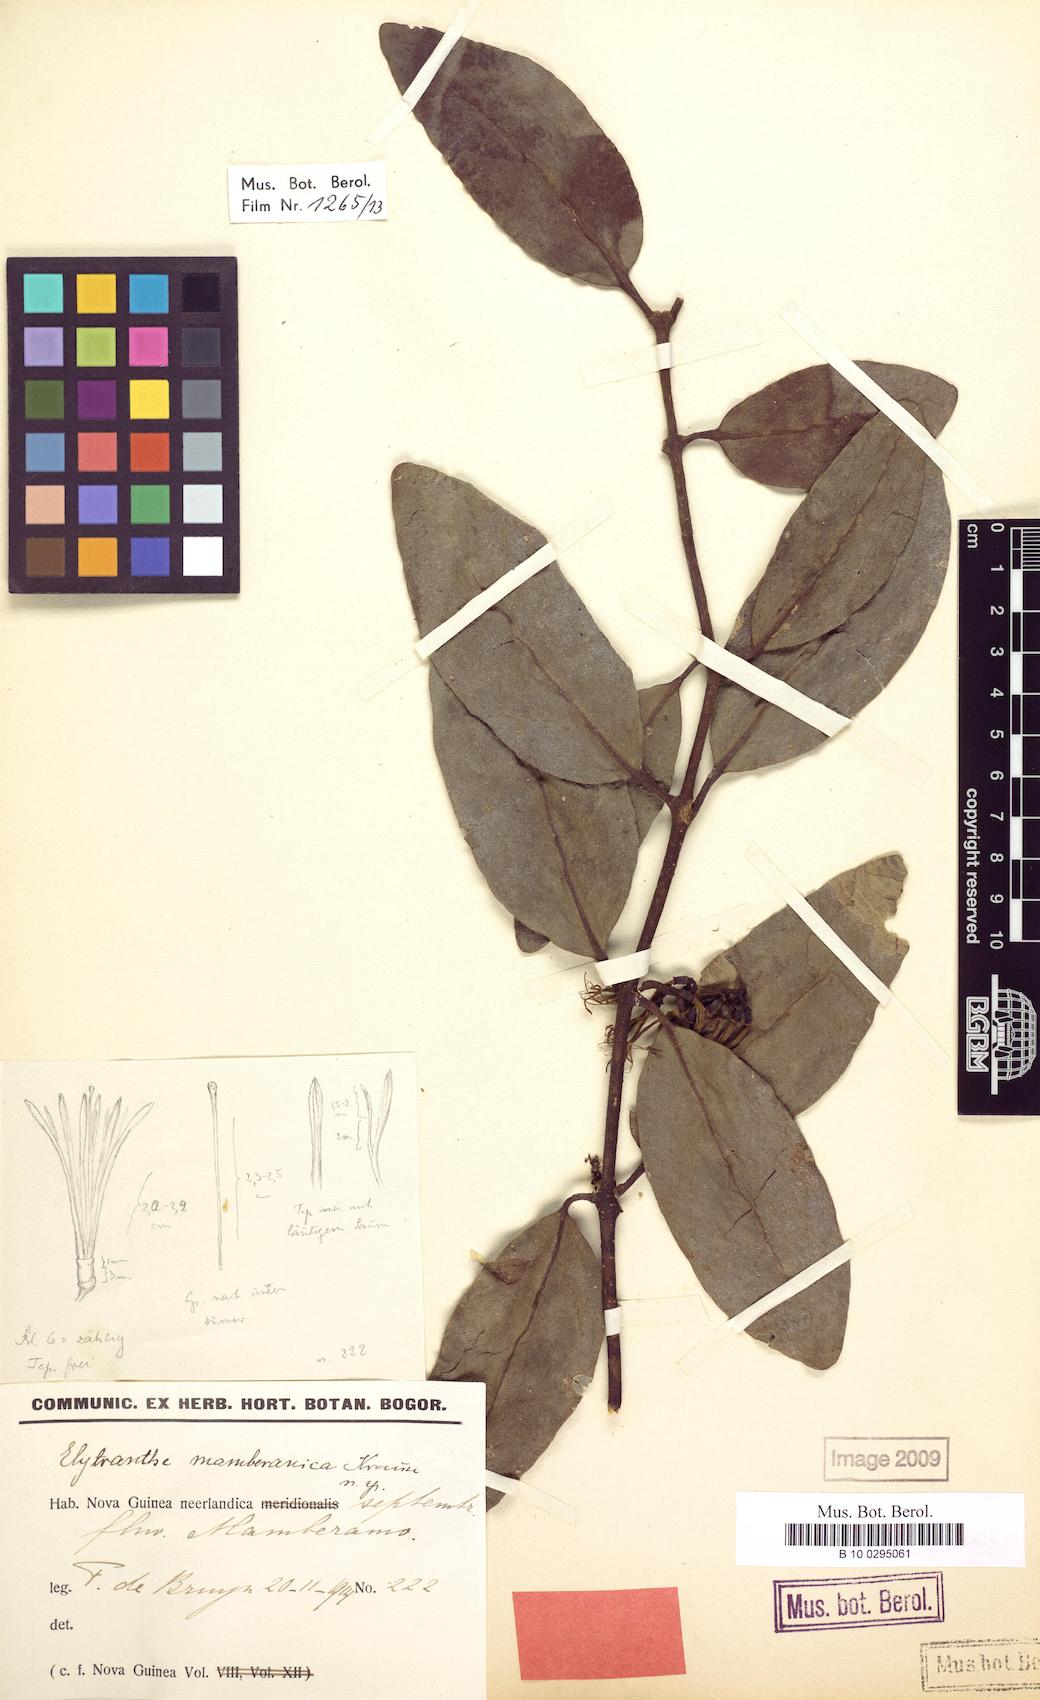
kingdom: Plantae
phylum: Tracheophyta
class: Magnoliopsida
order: Santalales
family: Loranthaceae
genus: Decaisnina
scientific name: Decaisnina djamuensis
